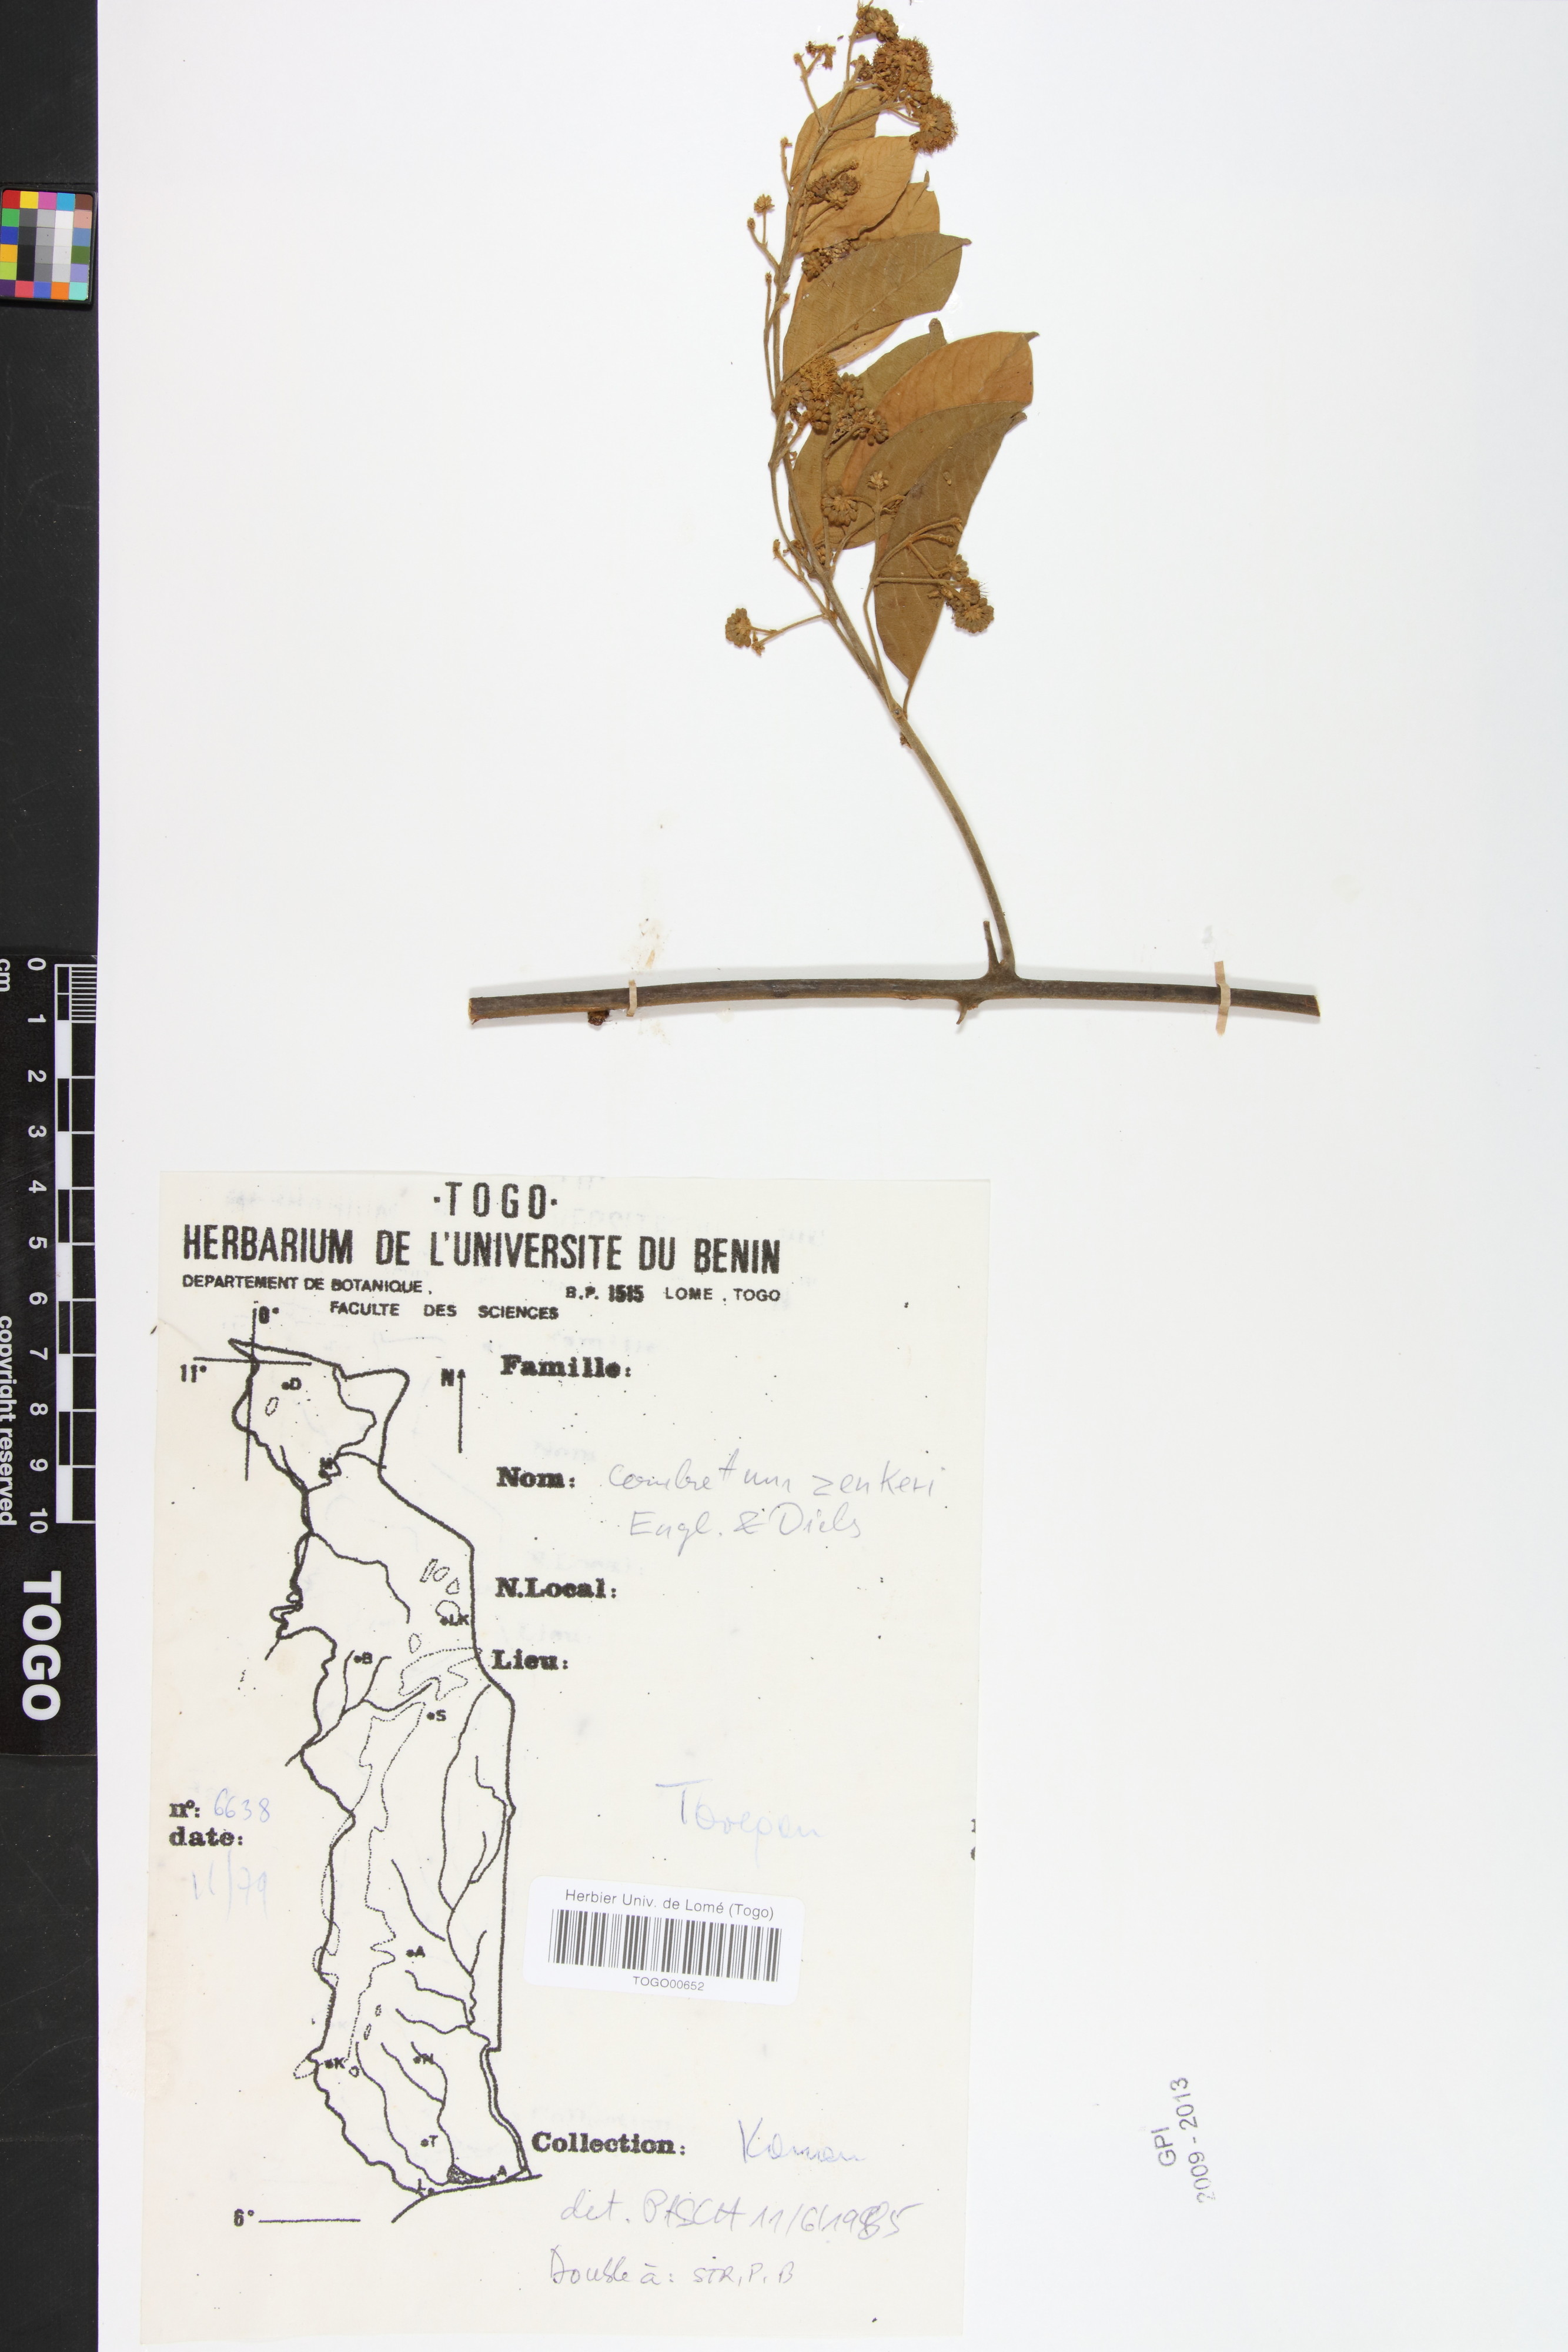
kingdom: Plantae
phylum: Tracheophyta
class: Magnoliopsida
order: Myrtales
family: Combretaceae
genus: Combretum
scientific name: Combretum zenkeri
